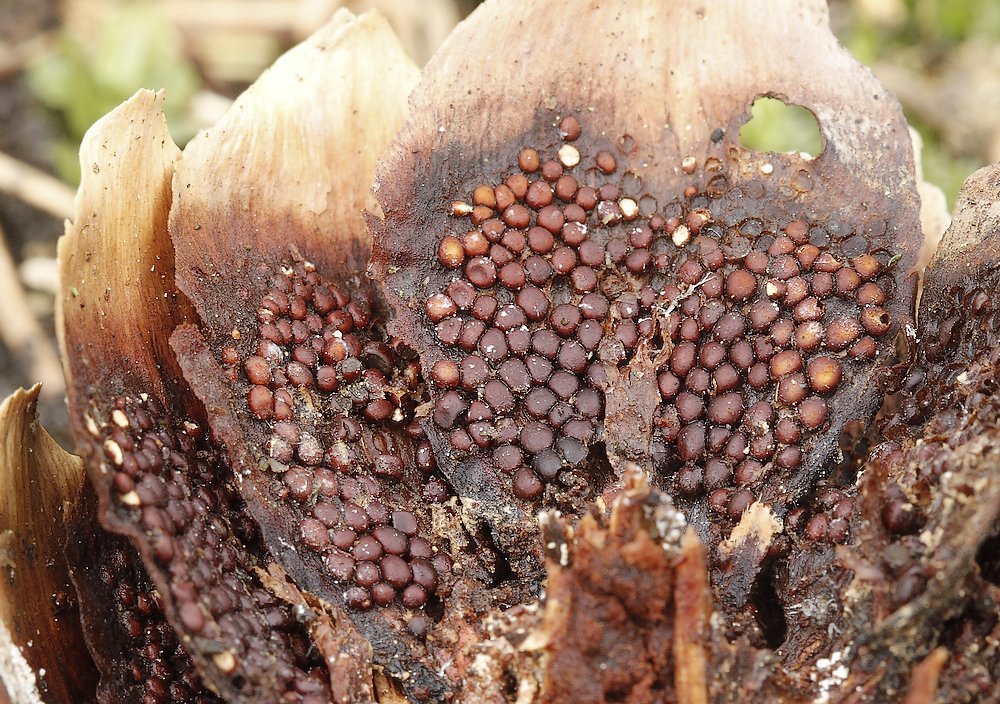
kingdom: Fungi
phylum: Basidiomycota
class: Pucciniomycetes
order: Pucciniales
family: Pucciniastraceae
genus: Thekopsora
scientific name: Thekopsora areolata
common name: grankogle-nålerust
